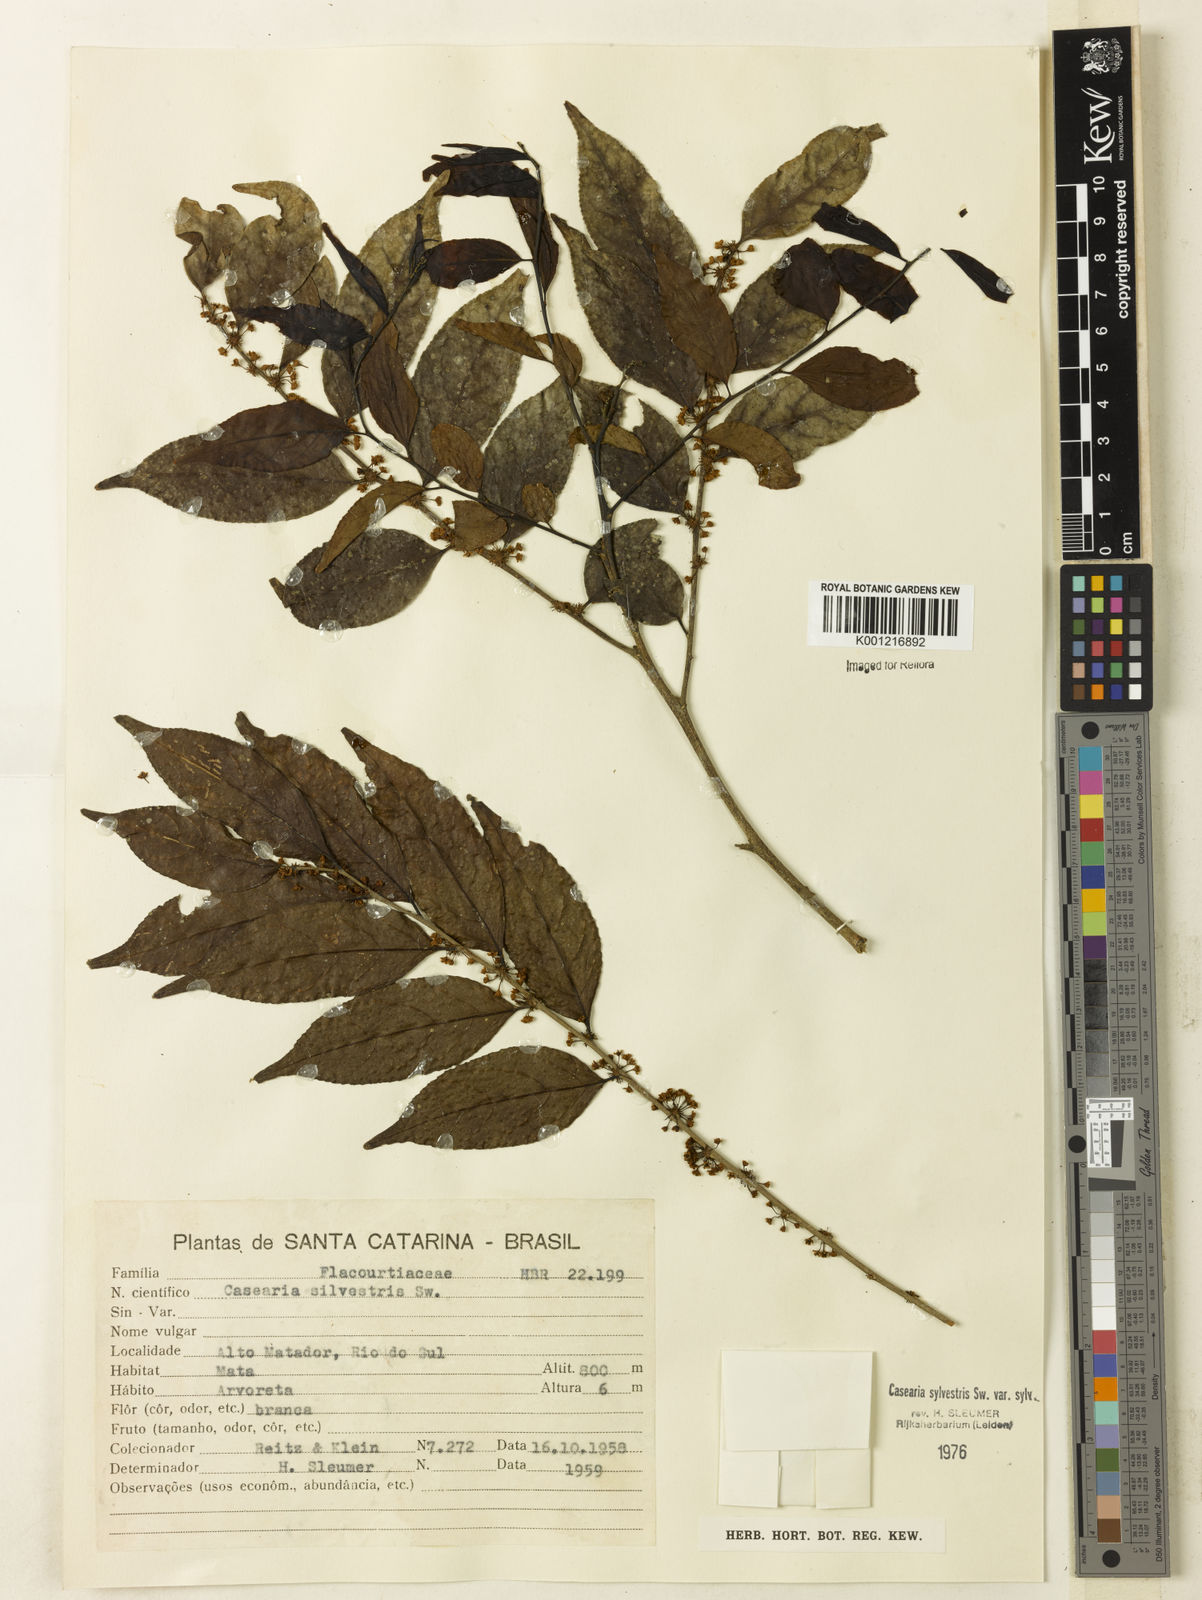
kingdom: Plantae
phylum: Tracheophyta
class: Magnoliopsida
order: Malpighiales
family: Salicaceae
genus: Casearia
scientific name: Casearia sylvestris
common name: Wild sage
